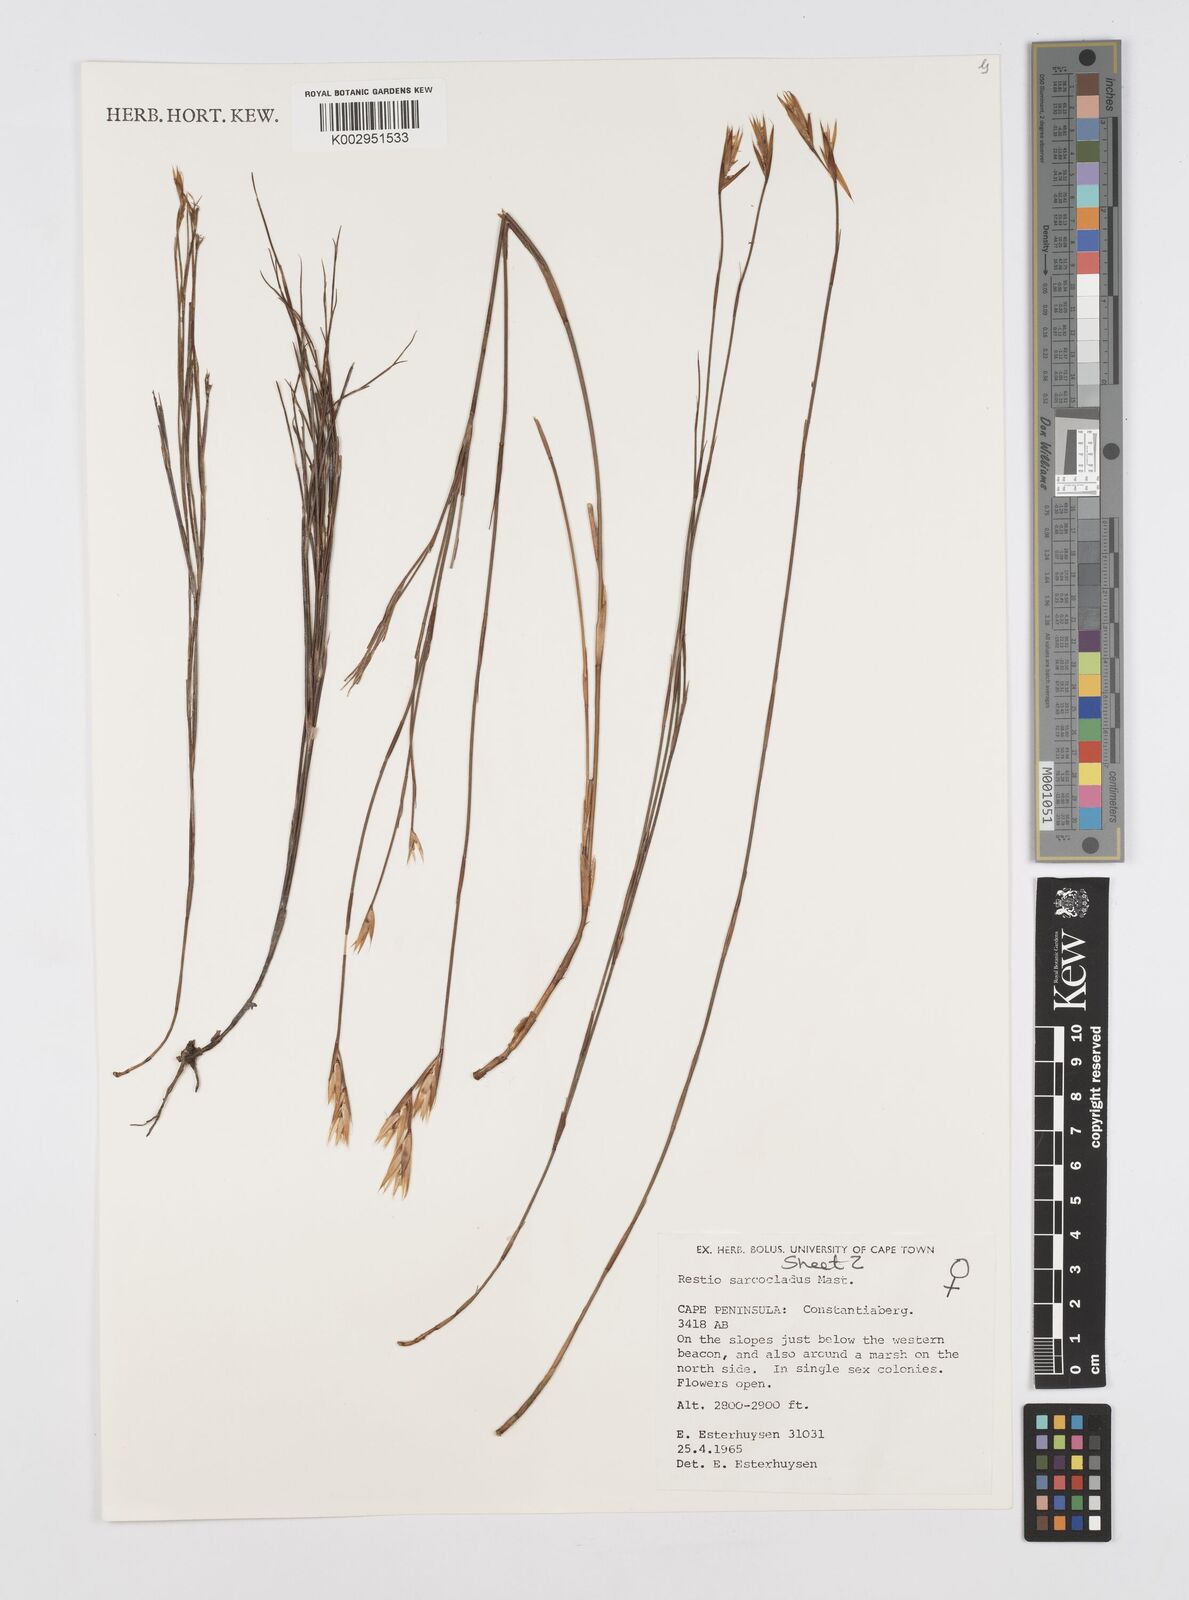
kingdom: Plantae
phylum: Tracheophyta
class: Liliopsida
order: Poales
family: Restionaceae
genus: Restio
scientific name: Restio saroclados
